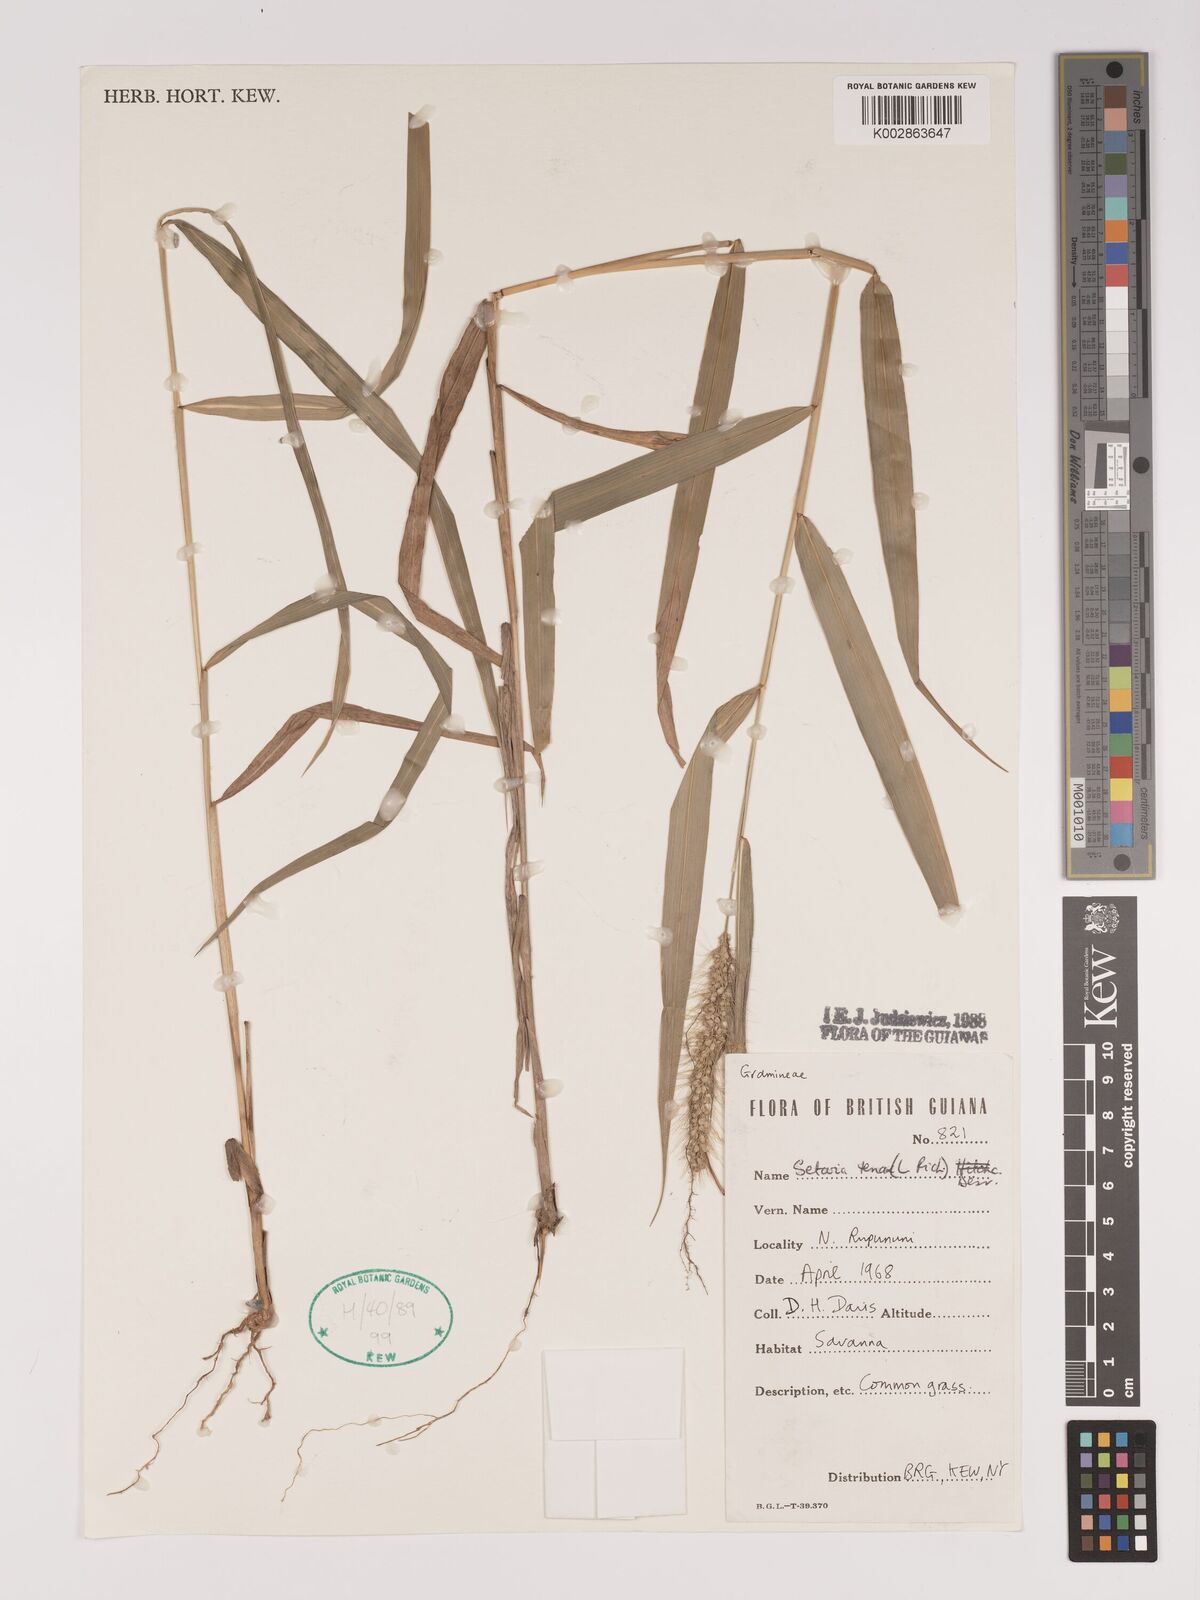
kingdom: Plantae
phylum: Tracheophyta
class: Liliopsida
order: Poales
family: Poaceae
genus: Setaria
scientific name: Setaria tenax
